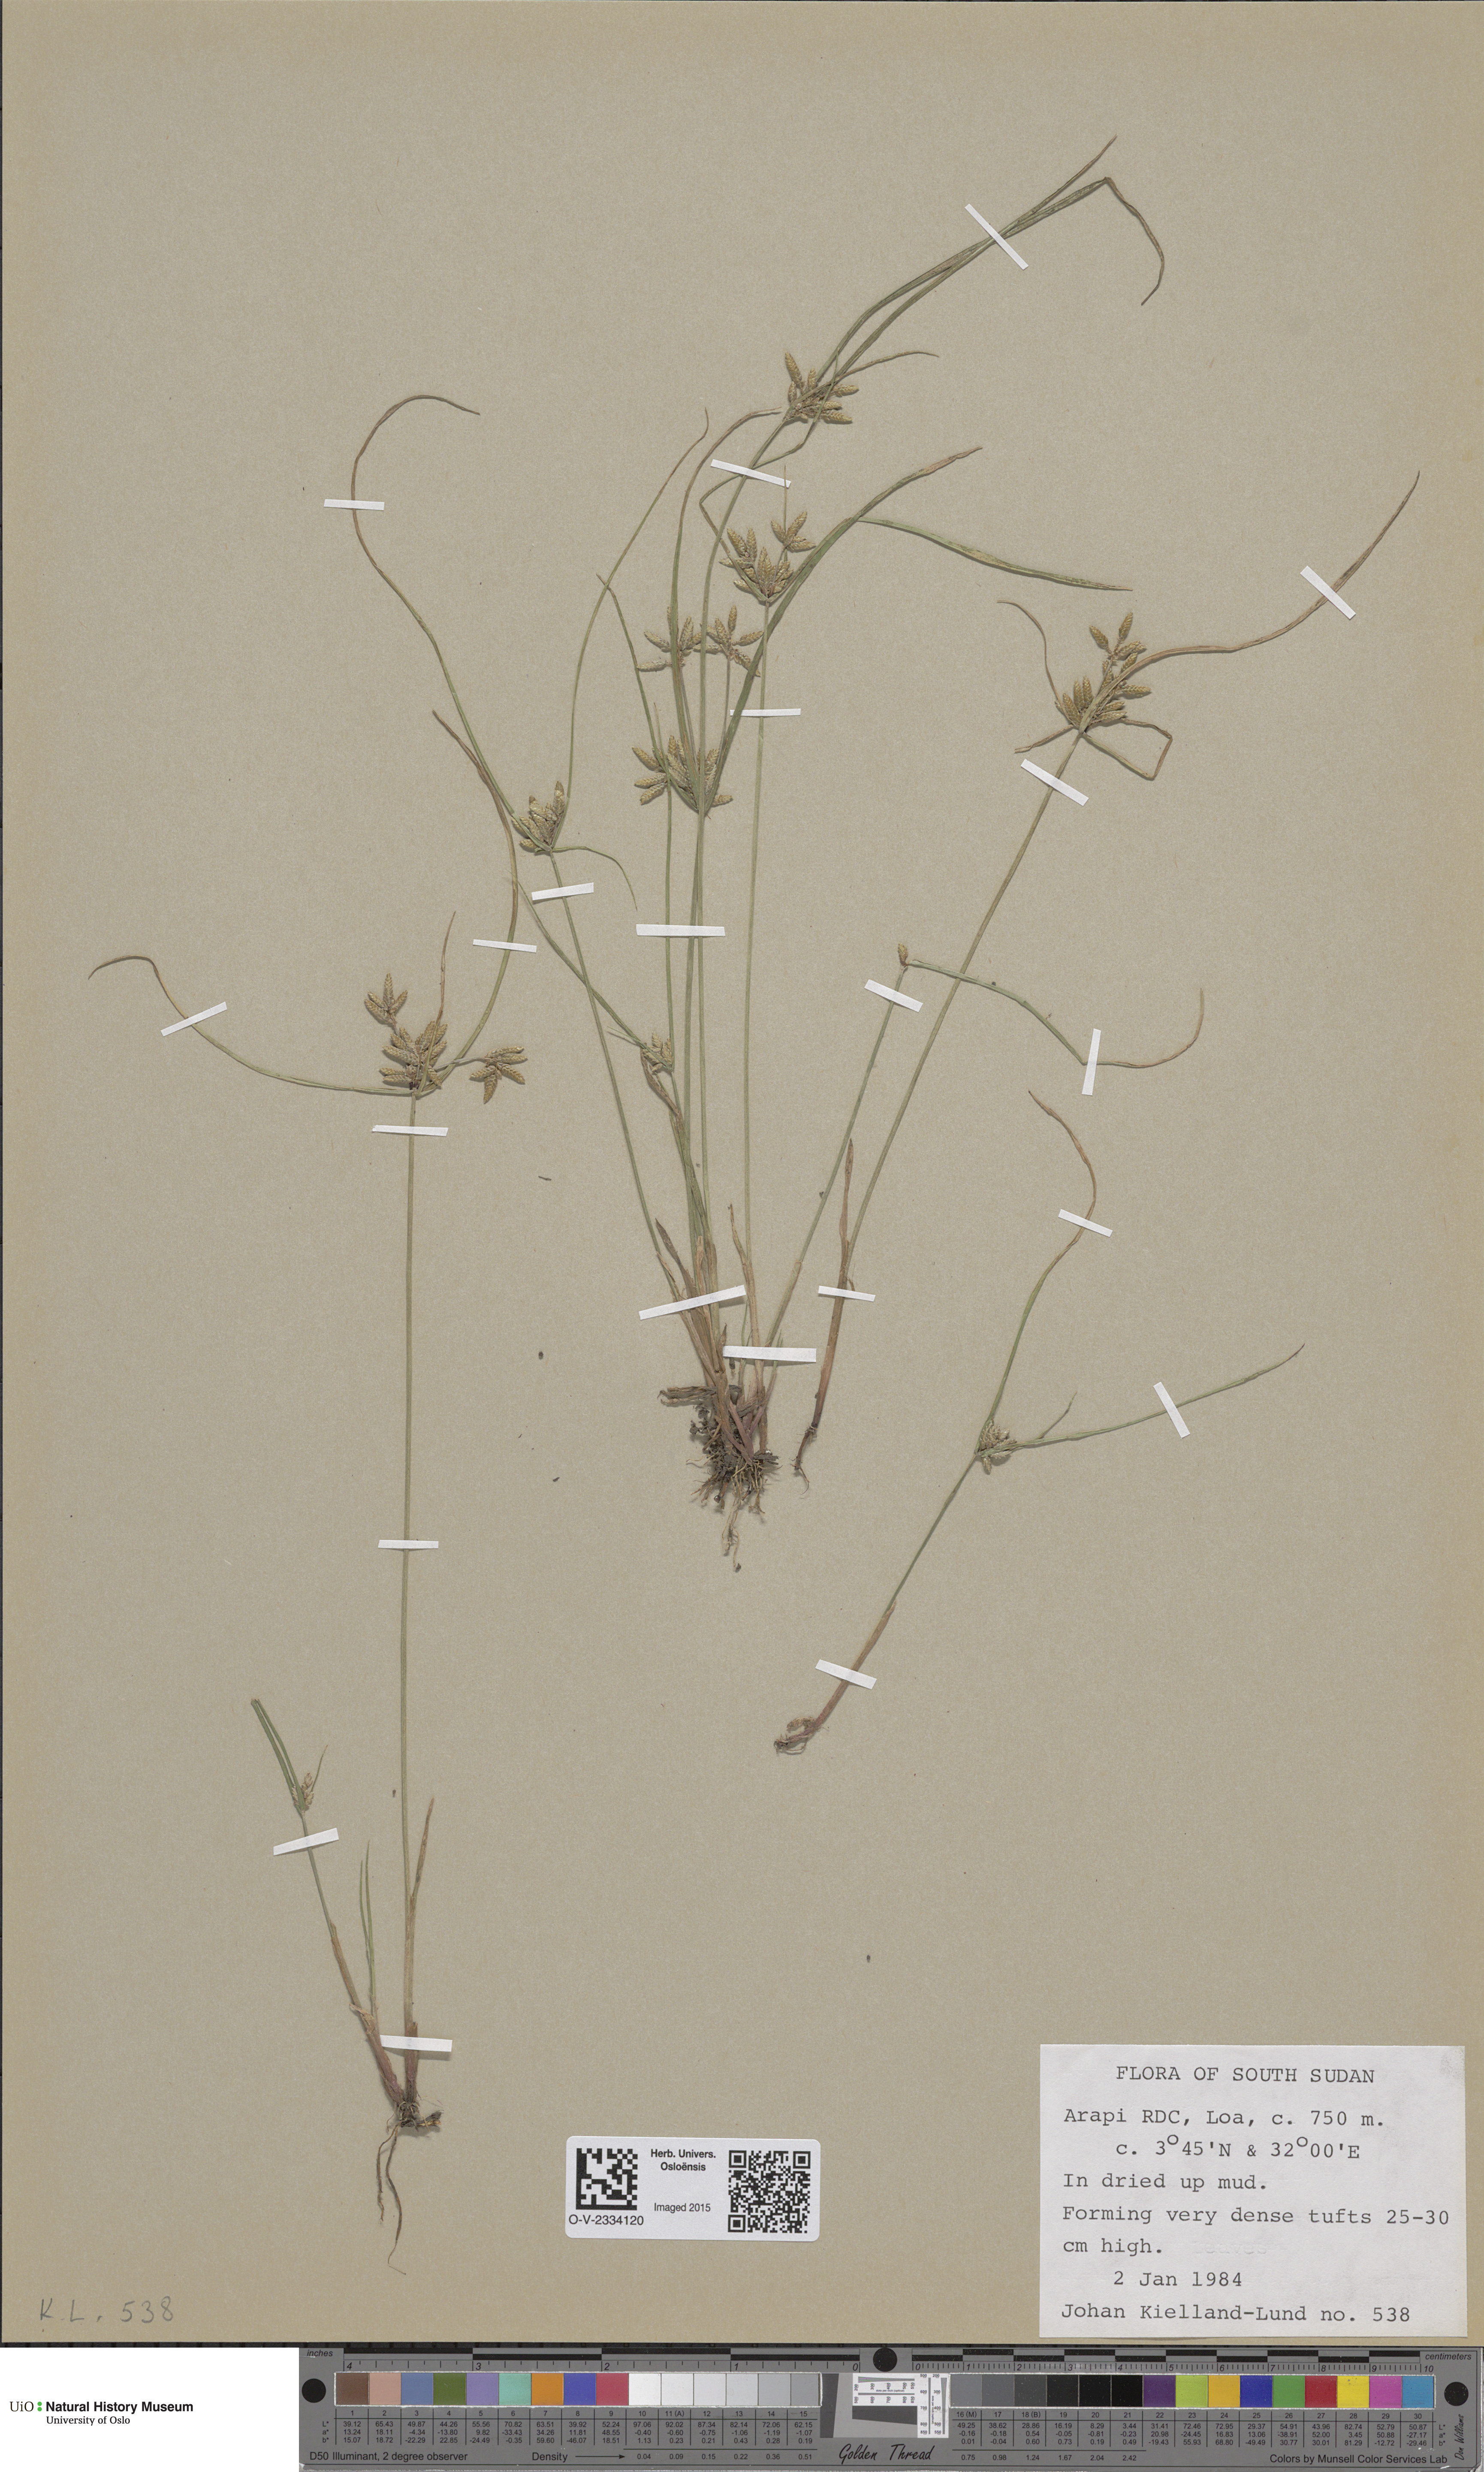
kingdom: Plantae
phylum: Tracheophyta
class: Magnoliopsida
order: Caryophyllales
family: Caryophyllaceae
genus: Honckenya
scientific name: Honckenya peploides
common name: Sea sandwort
